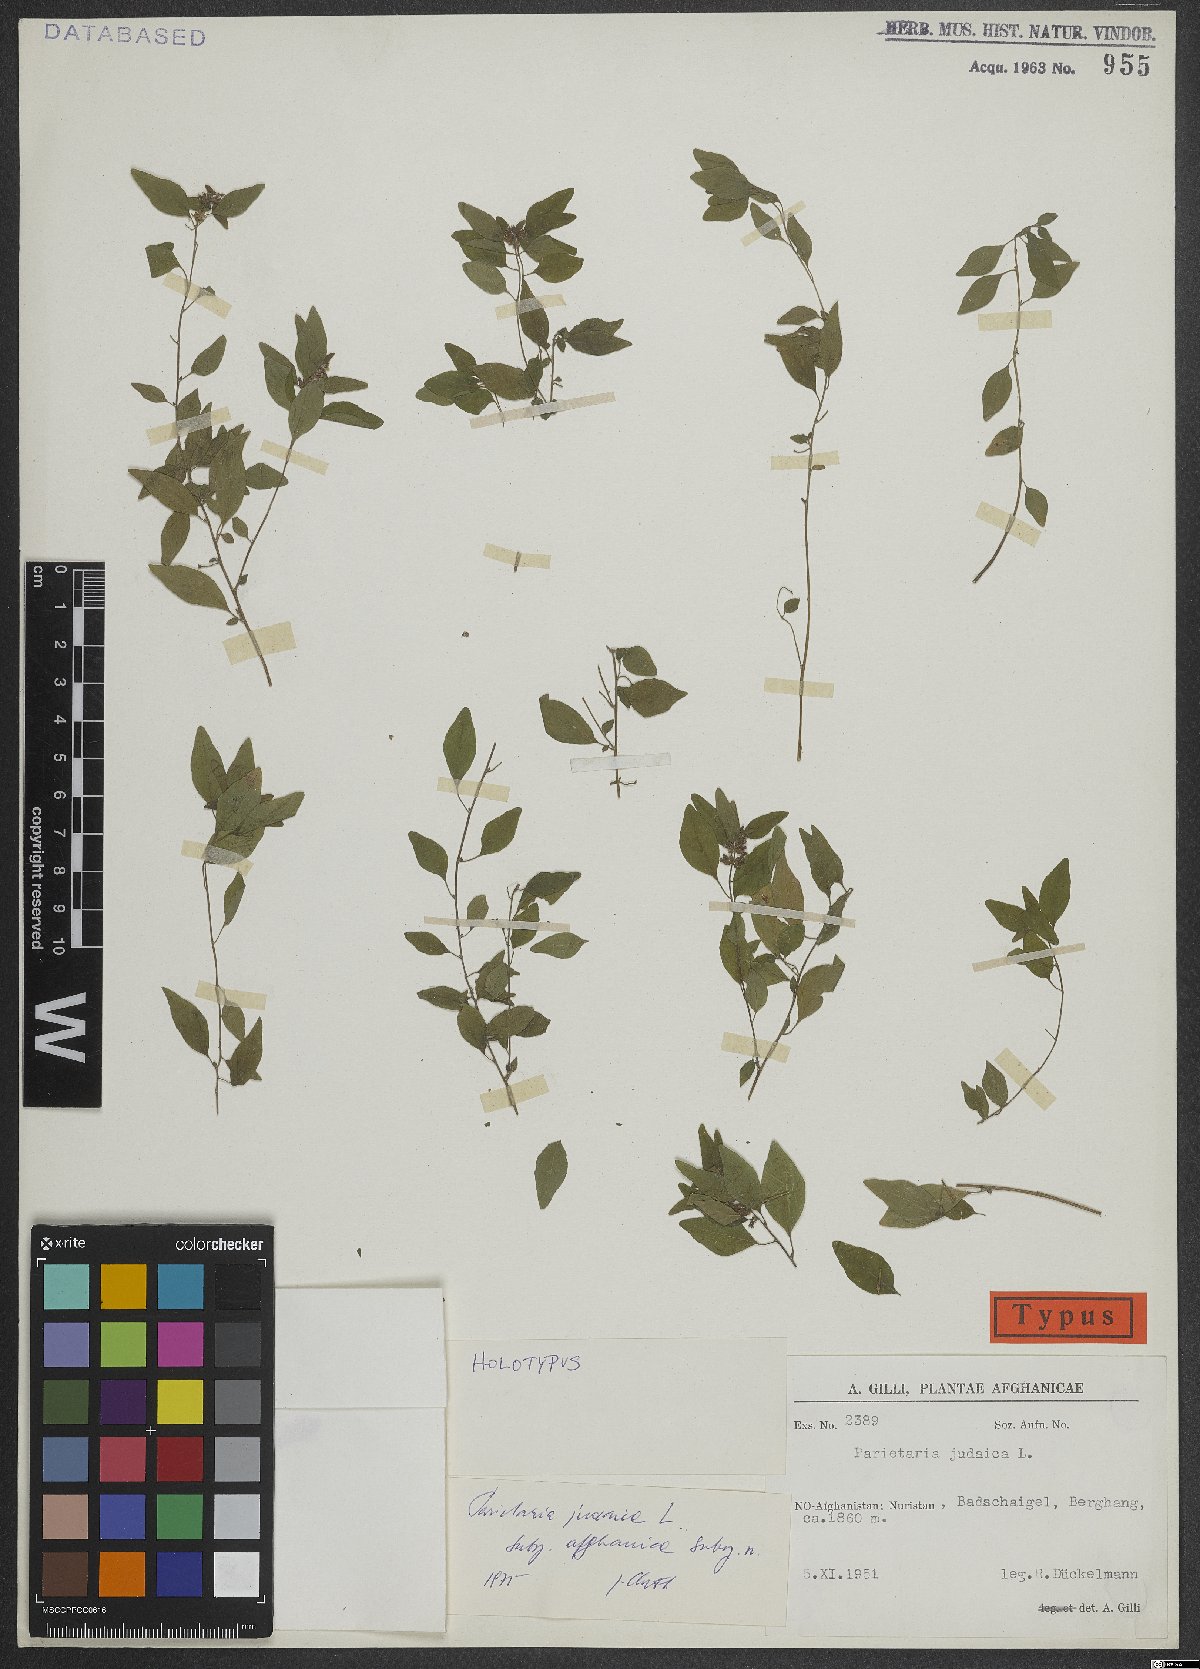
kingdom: Plantae
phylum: Tracheophyta
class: Magnoliopsida
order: Rosales
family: Urticaceae
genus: Parietaria
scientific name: Parietaria judaica
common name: Pellitory-of-the-wall
